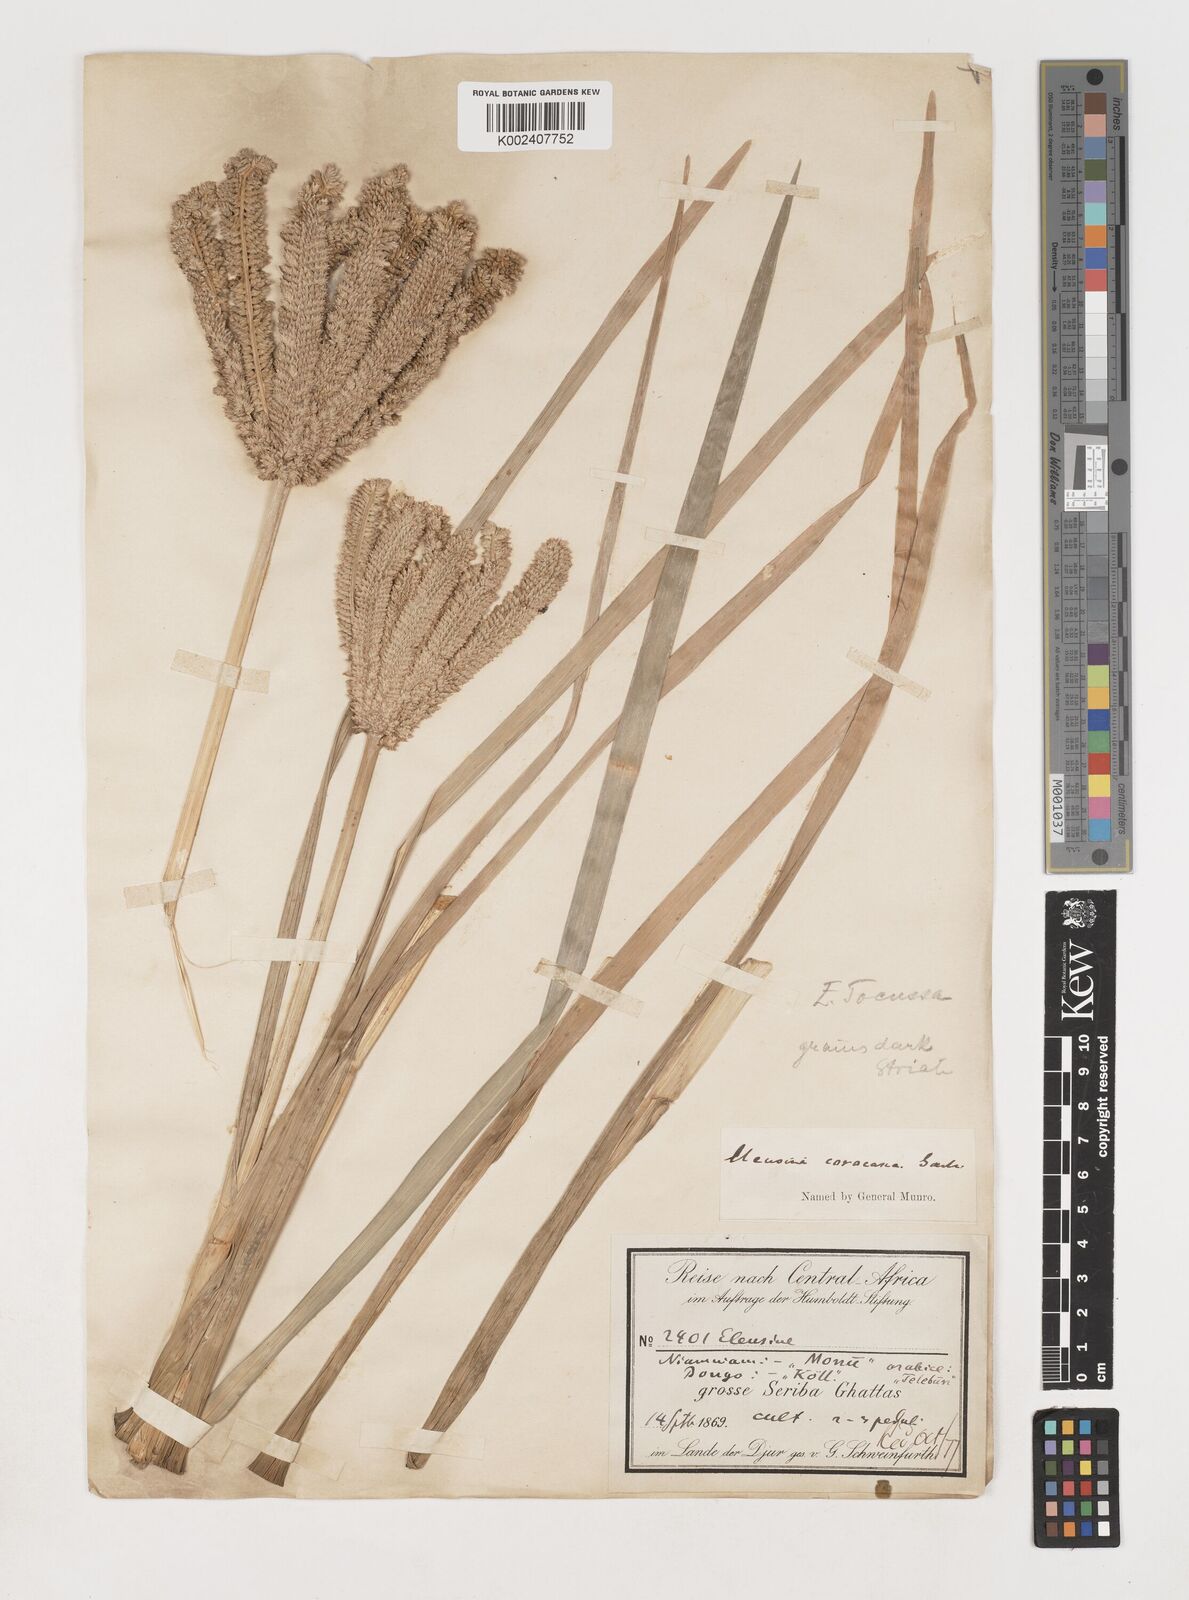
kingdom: Plantae
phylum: Tracheophyta
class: Liliopsida
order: Poales
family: Poaceae
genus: Eleusine
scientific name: Eleusine coracana
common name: Finger millet
